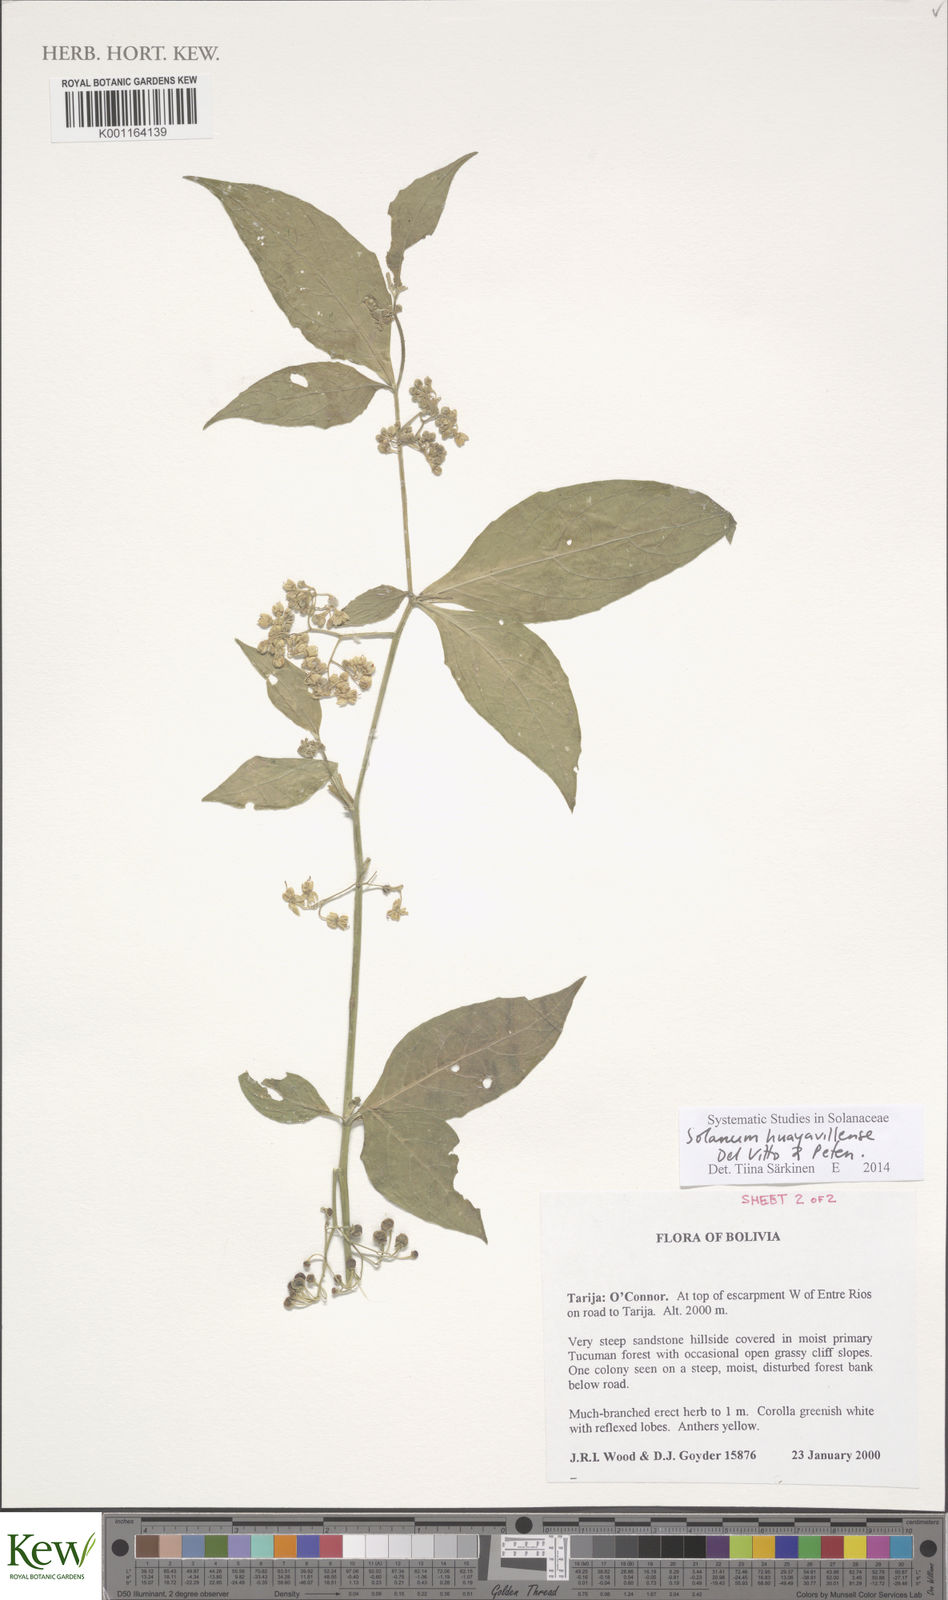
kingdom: Plantae
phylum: Tracheophyta
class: Magnoliopsida
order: Solanales
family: Solanaceae
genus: Solanum
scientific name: Solanum huayavillense
